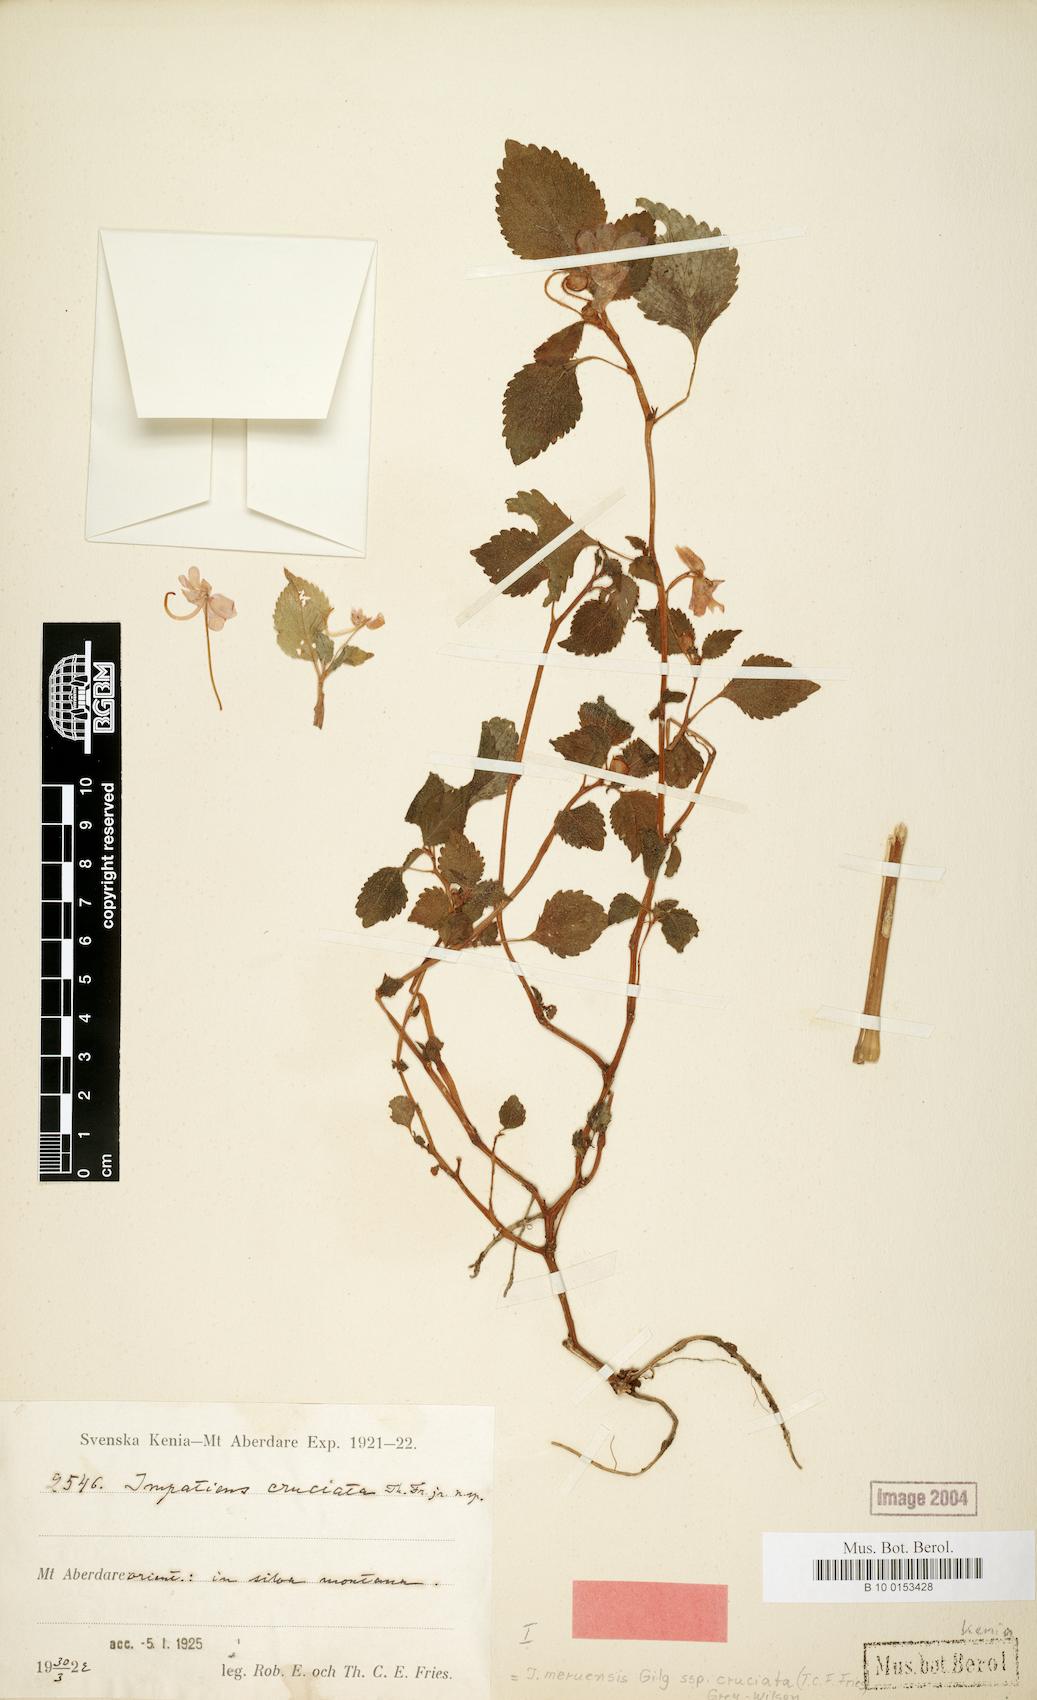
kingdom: Plantae
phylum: Tracheophyta
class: Magnoliopsida
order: Ericales
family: Balsaminaceae
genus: Impatiens
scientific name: Impatiens meruensis
